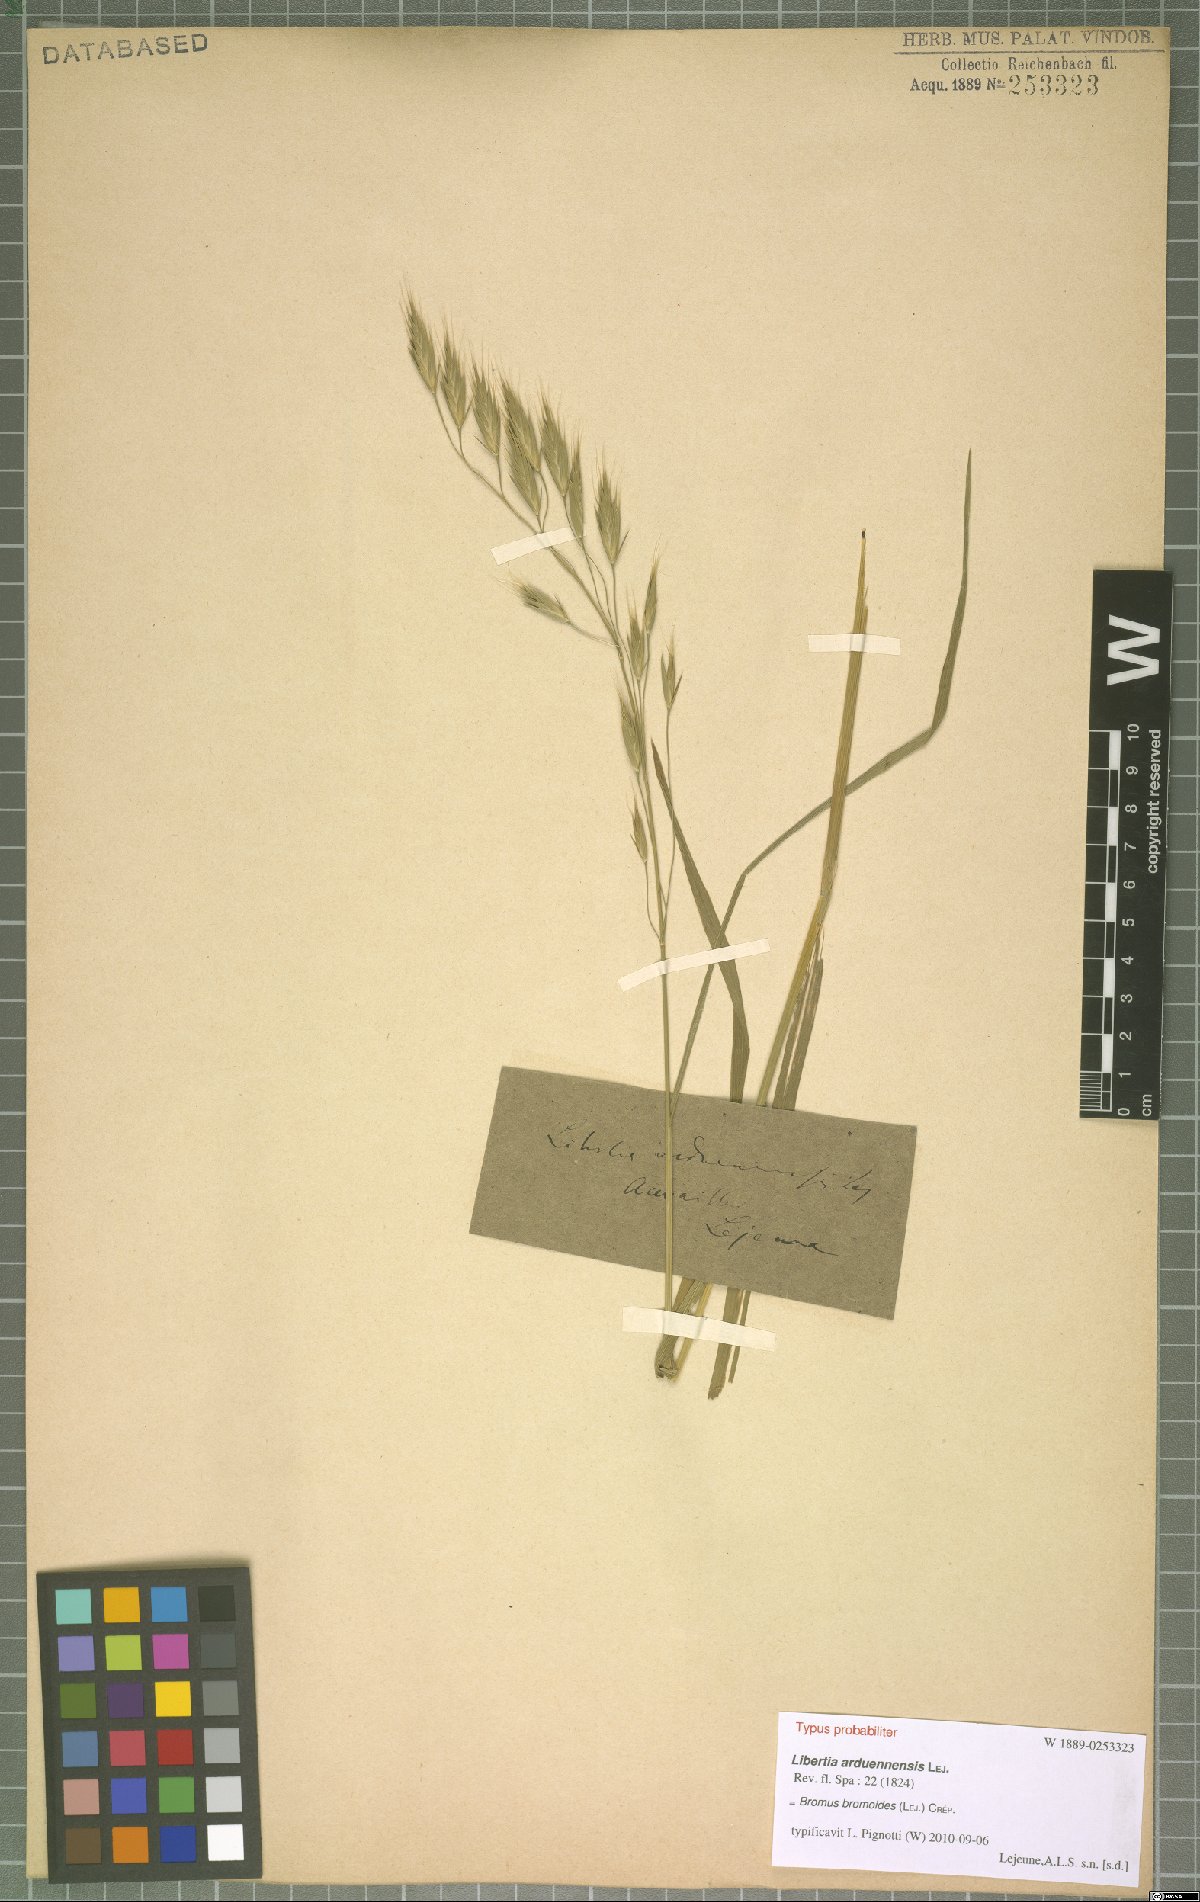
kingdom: Plantae
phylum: Tracheophyta
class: Liliopsida
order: Poales
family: Poaceae
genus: Bromus
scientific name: Bromus bromoideus
